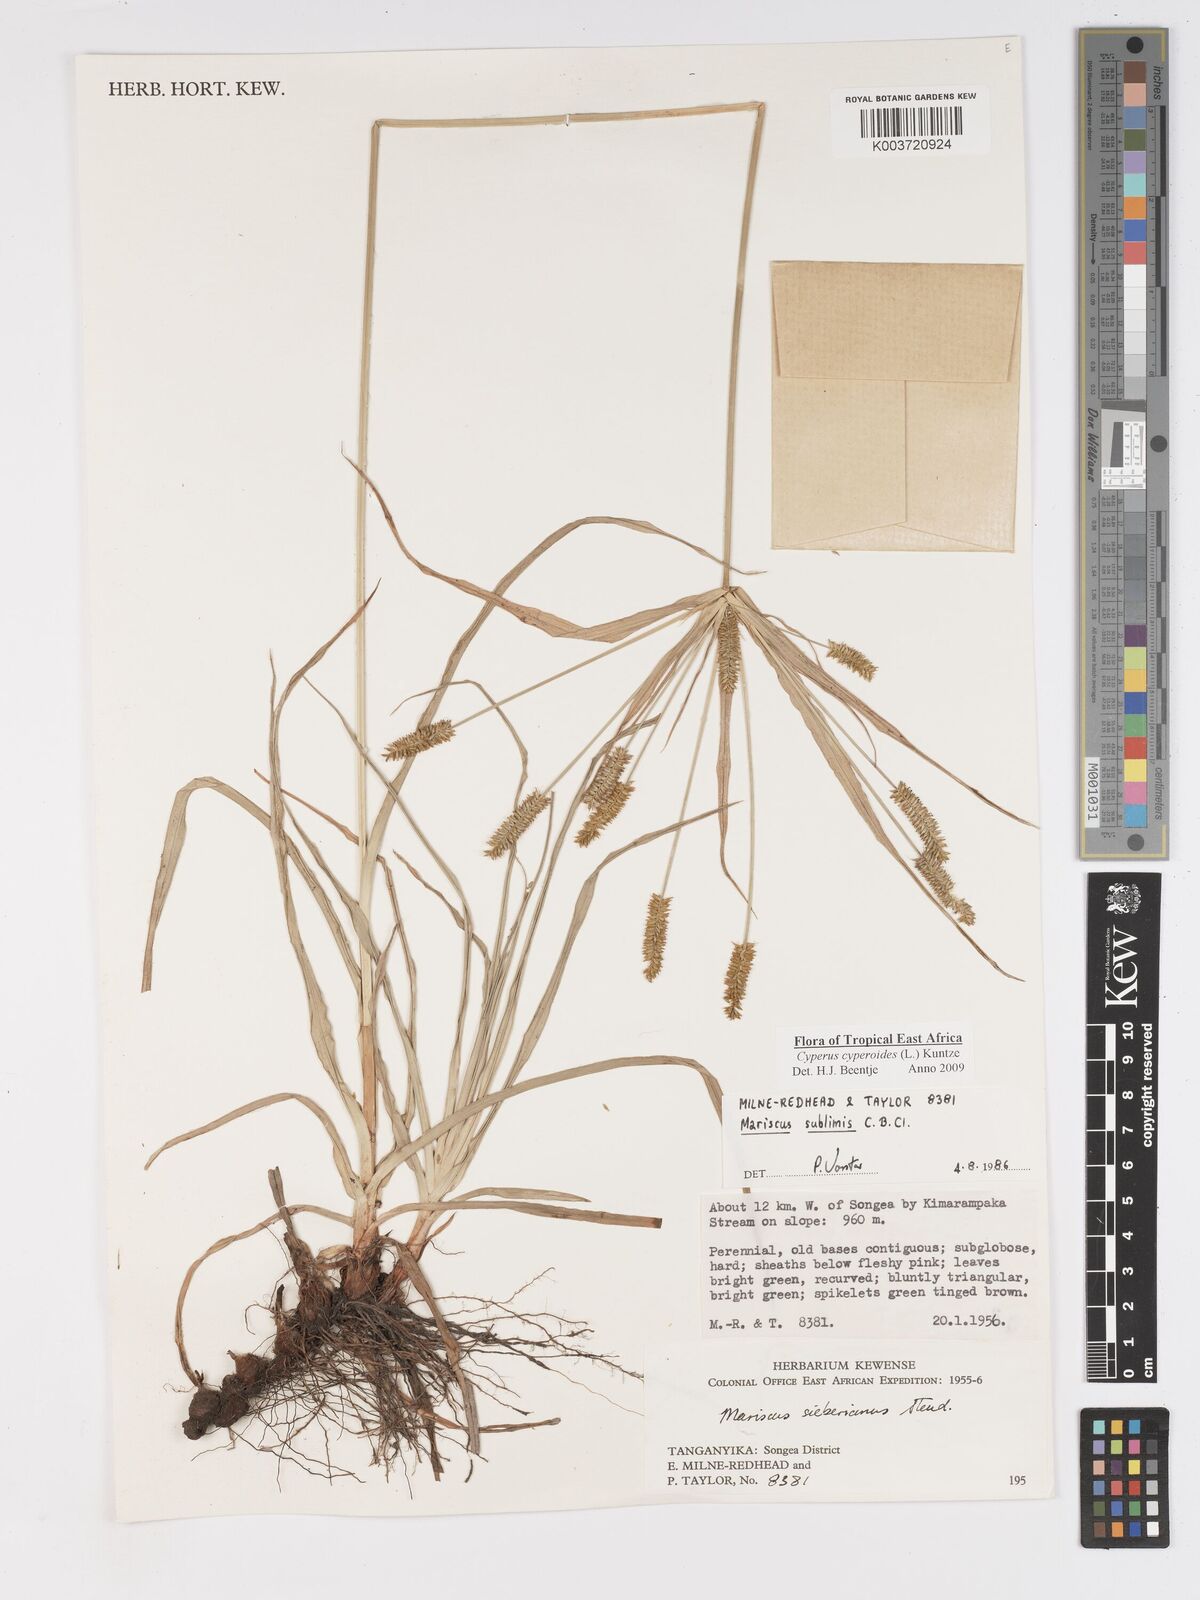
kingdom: Plantae
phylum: Tracheophyta
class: Liliopsida
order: Poales
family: Cyperaceae
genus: Cyperus
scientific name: Cyperus cyperoides
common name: Pacific island flat sedge
